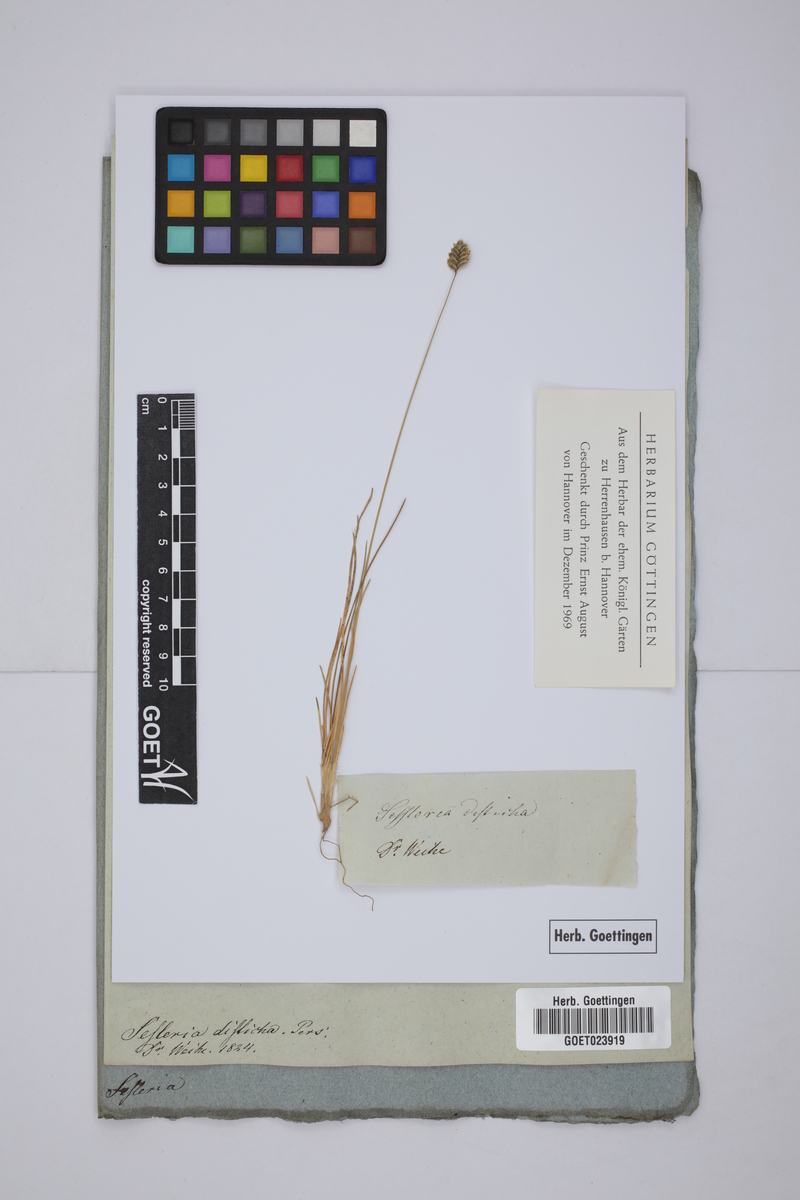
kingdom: Plantae
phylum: Tracheophyta
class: Liliopsida
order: Poales
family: Poaceae
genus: Oreochloa
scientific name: Oreochloa disticha
